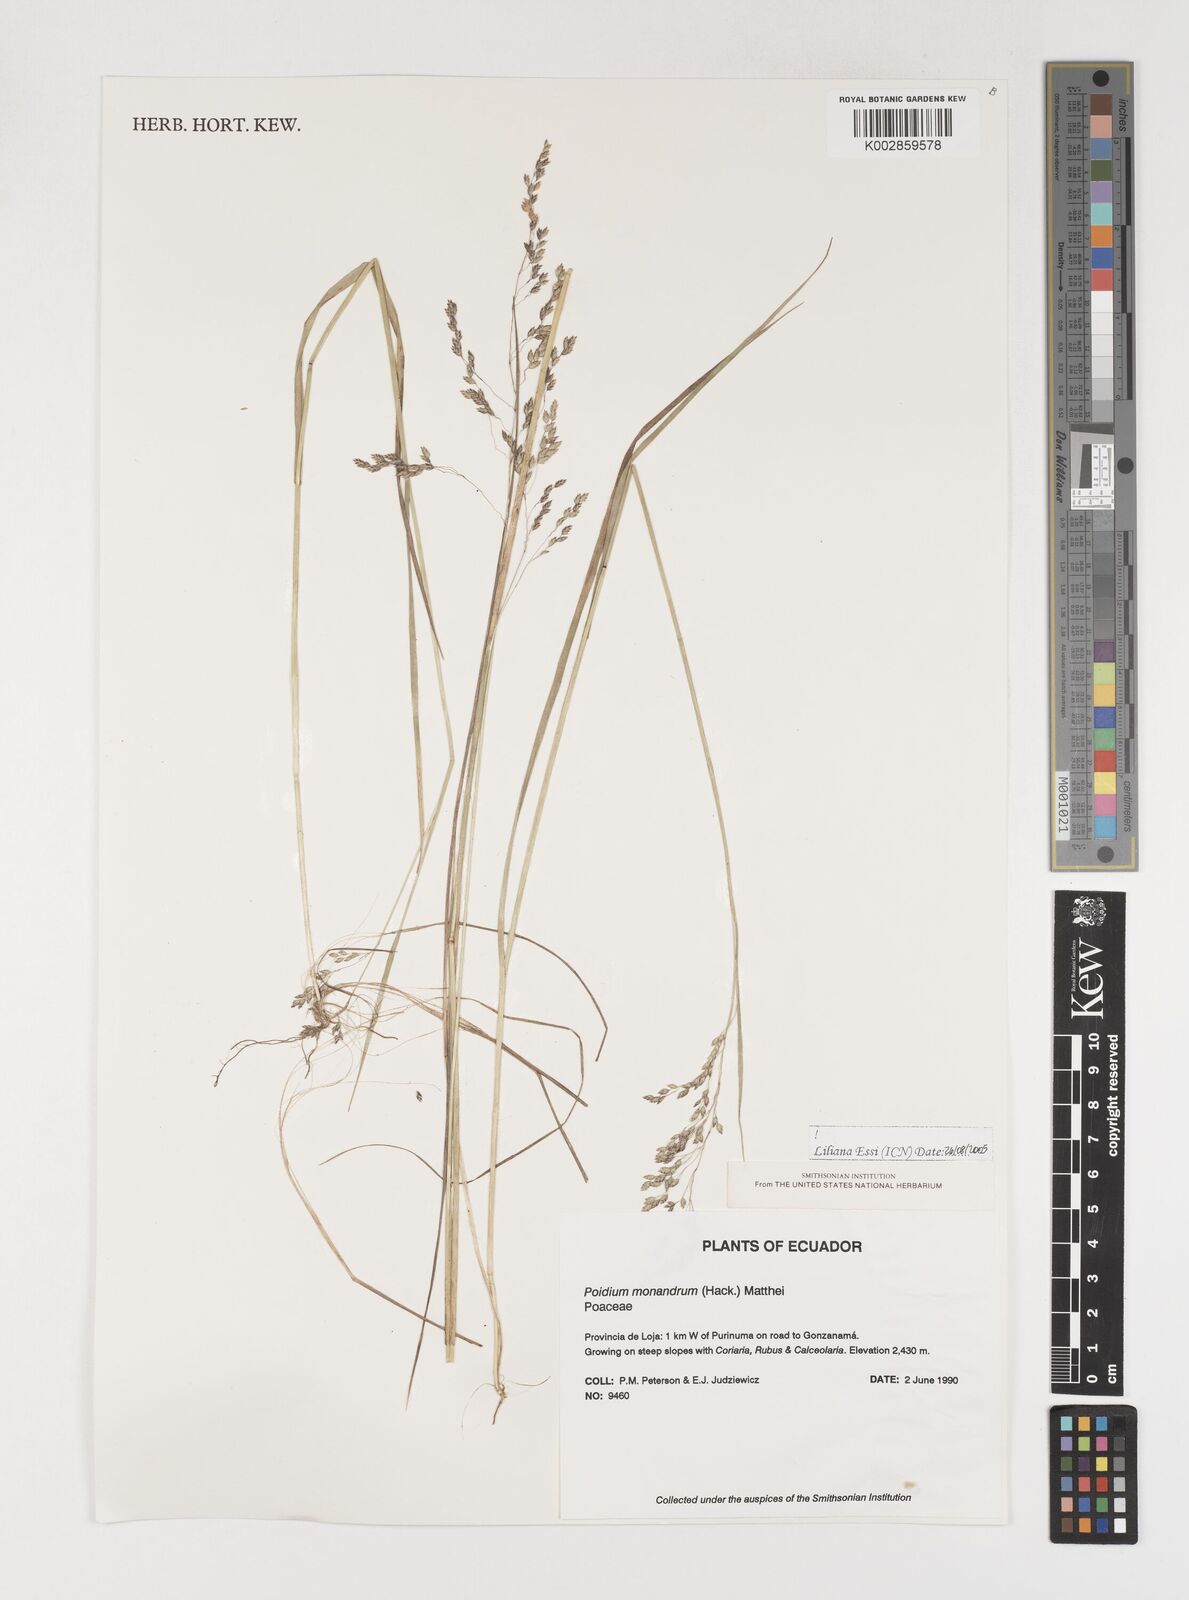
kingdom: Plantae
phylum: Tracheophyta
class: Liliopsida
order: Poales
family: Poaceae
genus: Poidium
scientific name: Poidium monandrum
